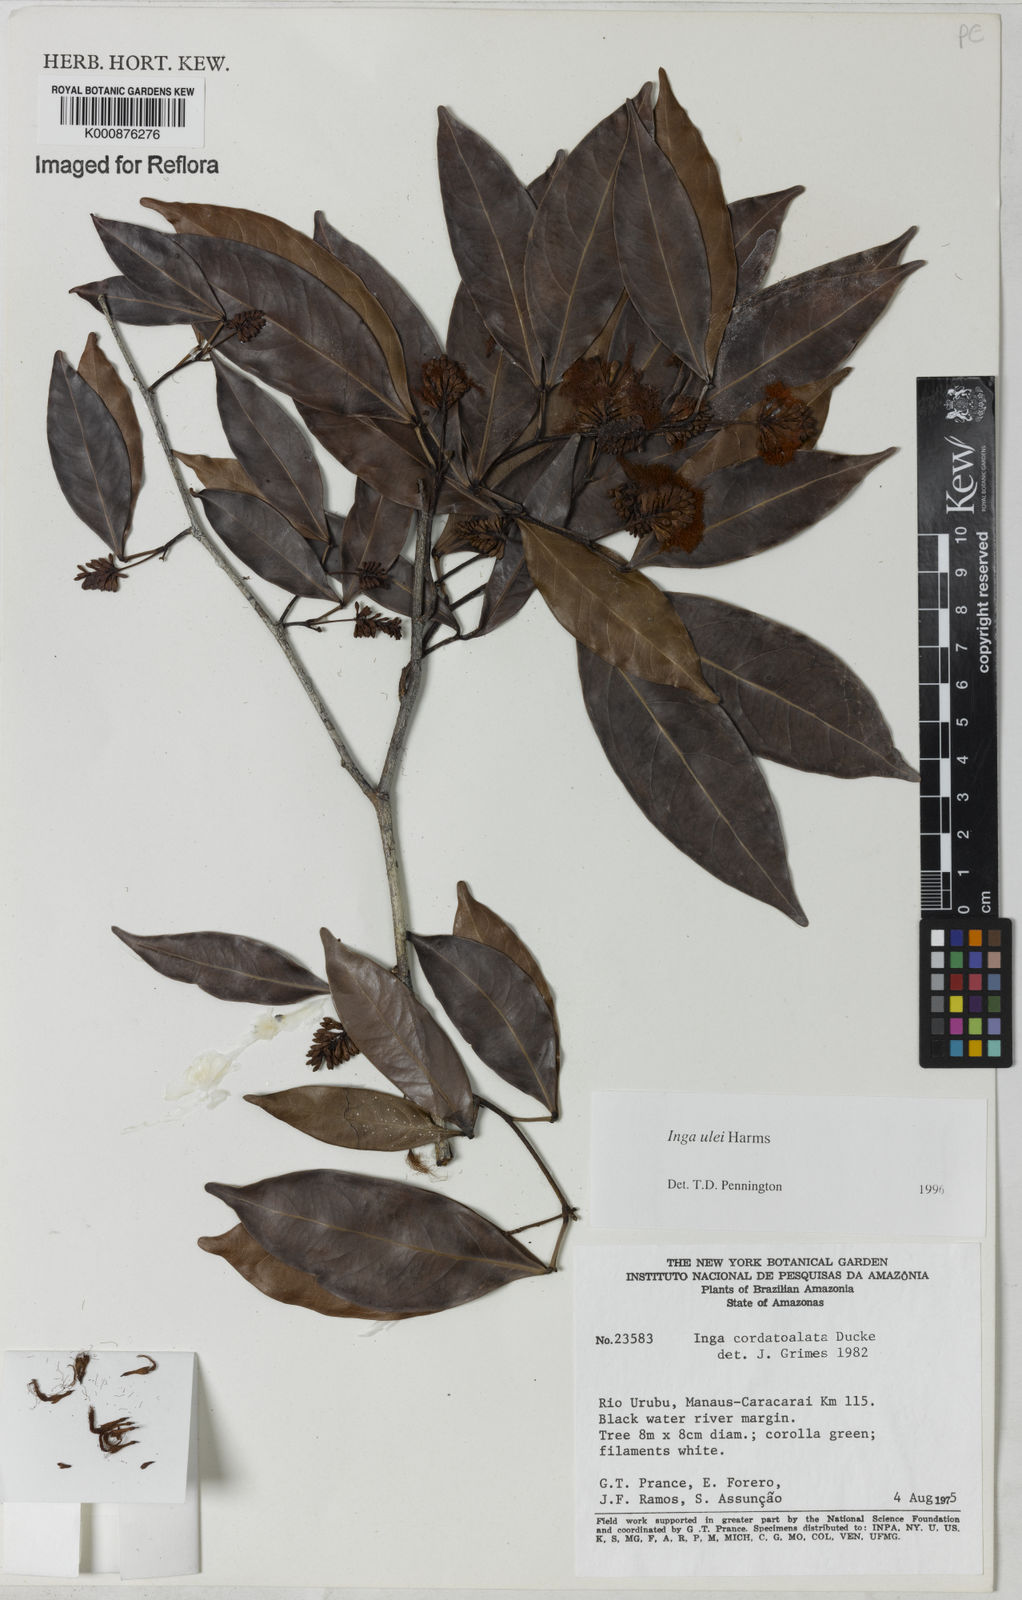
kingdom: Plantae
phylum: Tracheophyta
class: Magnoliopsida
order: Fabales
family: Fabaceae
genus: Inga
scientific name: Inga ulei
